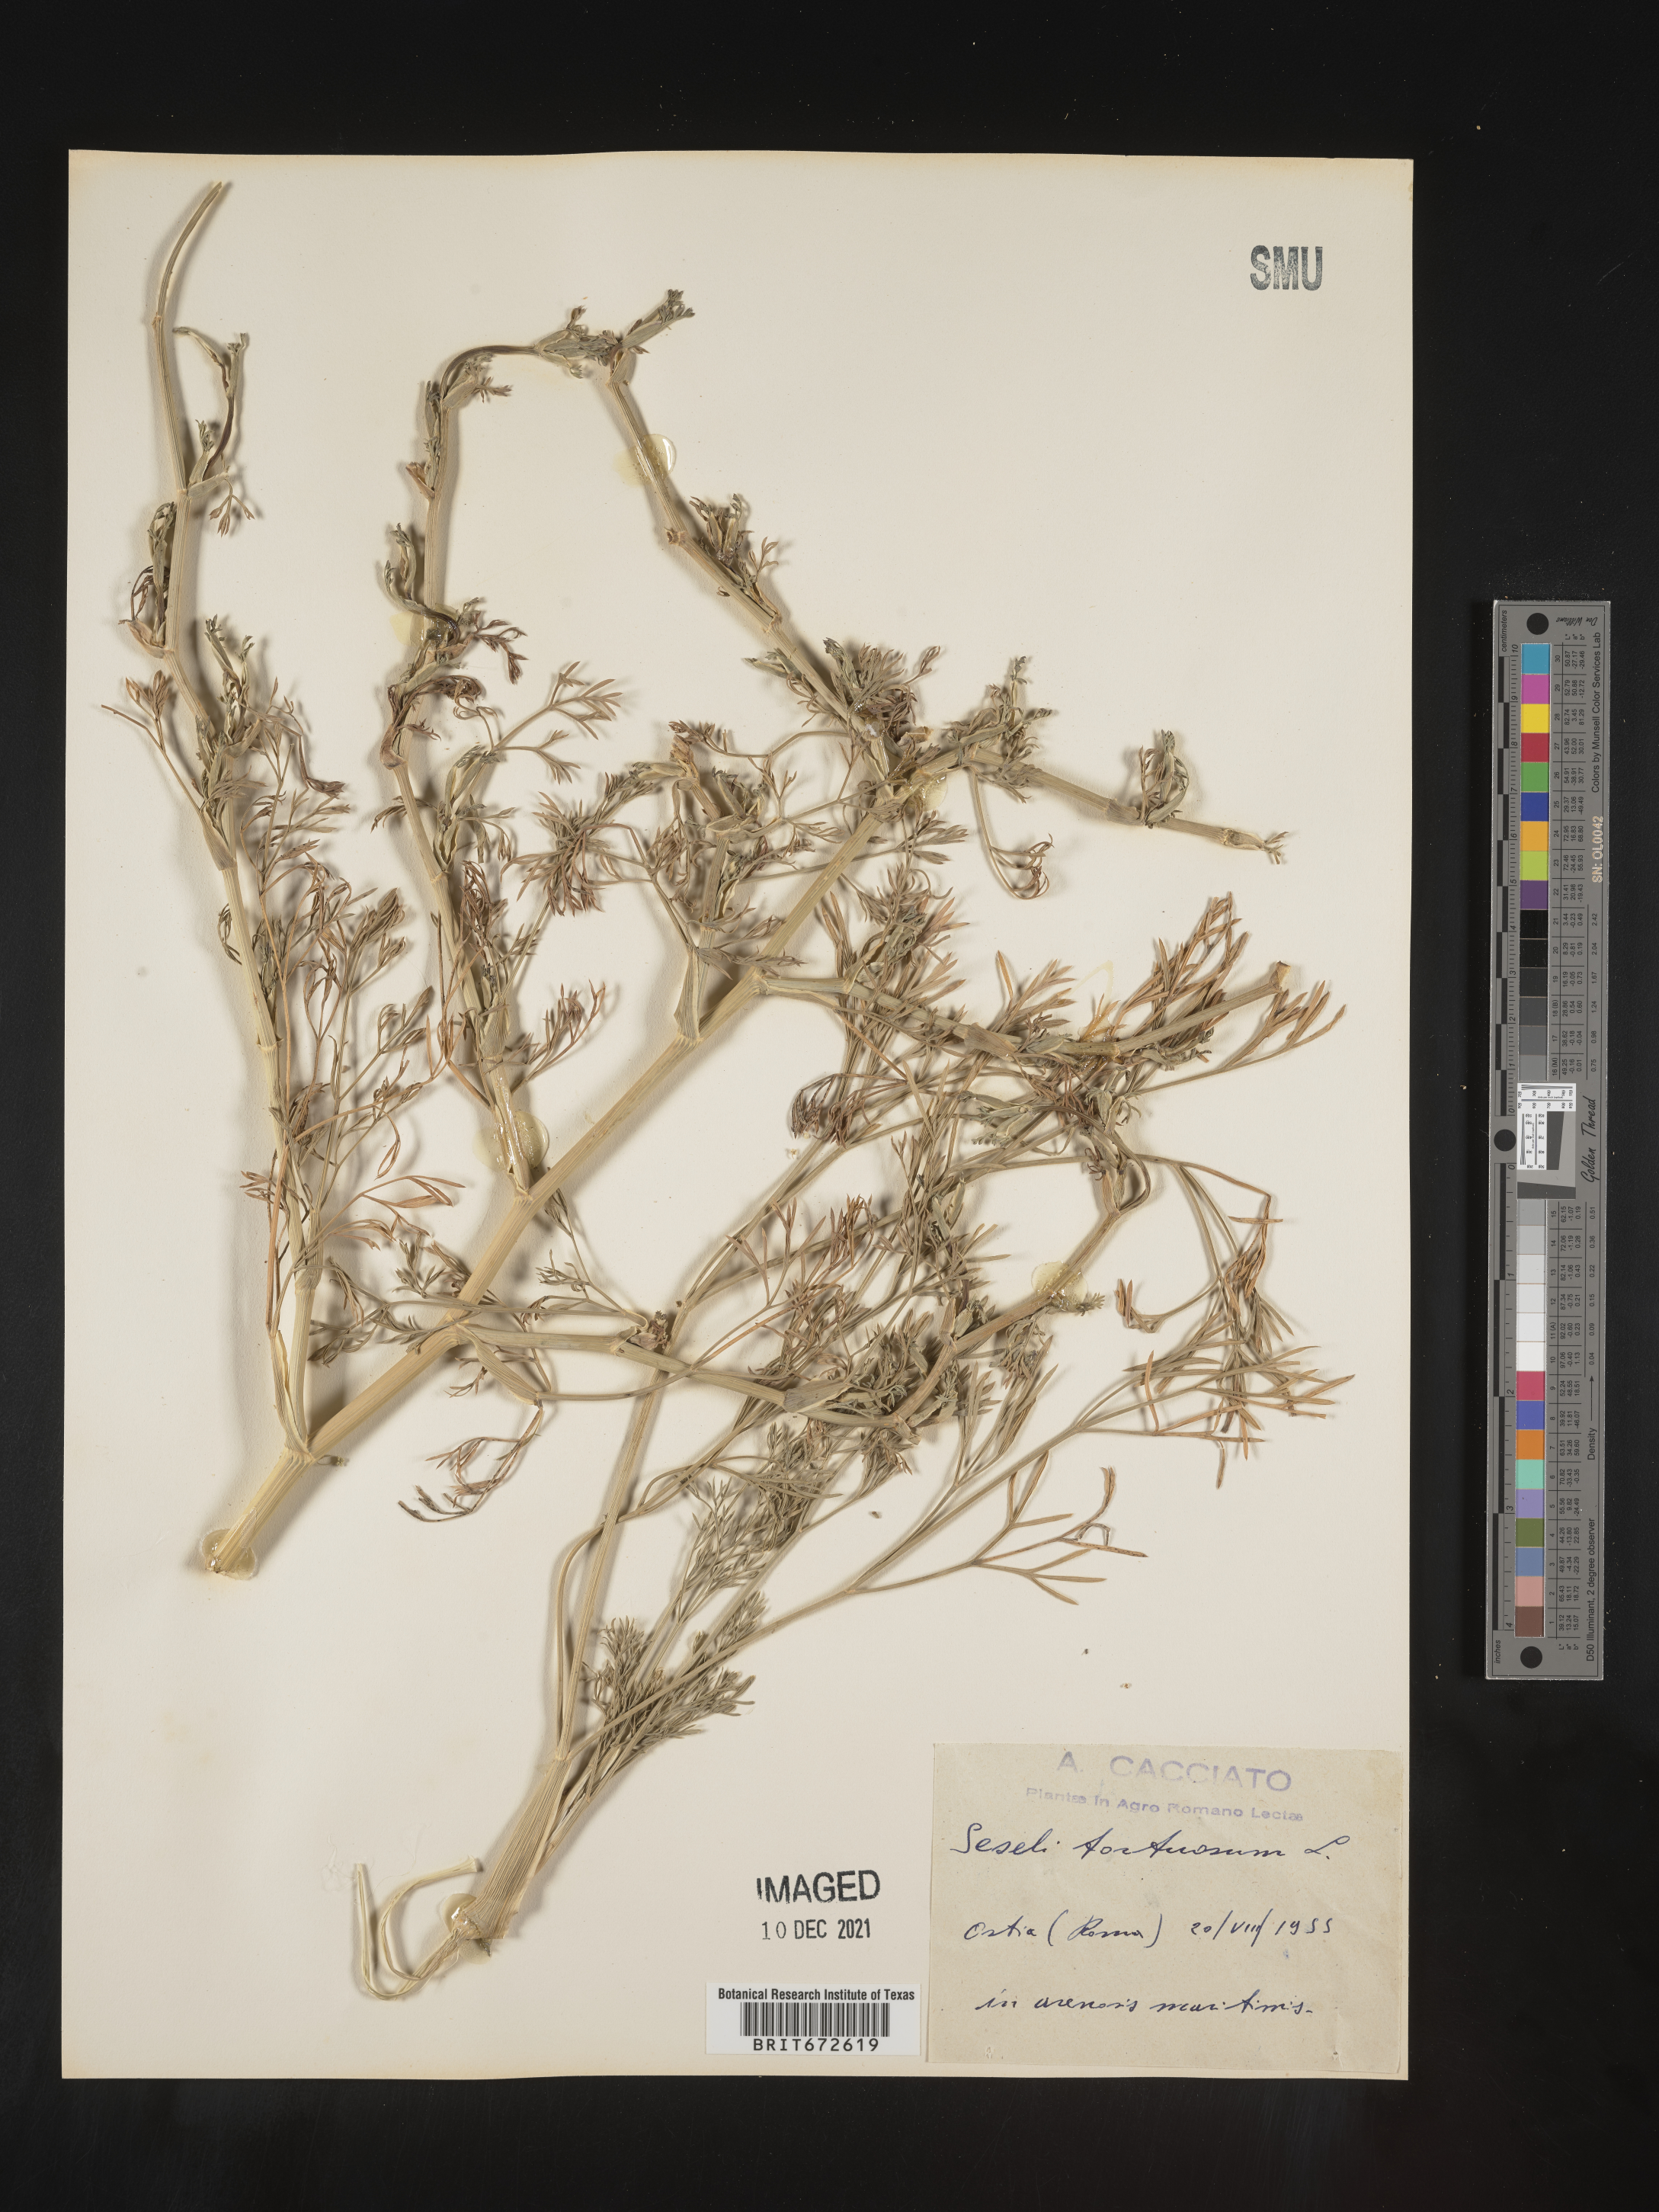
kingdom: Plantae
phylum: Tracheophyta
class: Magnoliopsida
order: Apiales
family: Apiaceae
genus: Seseli
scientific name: Seseli
